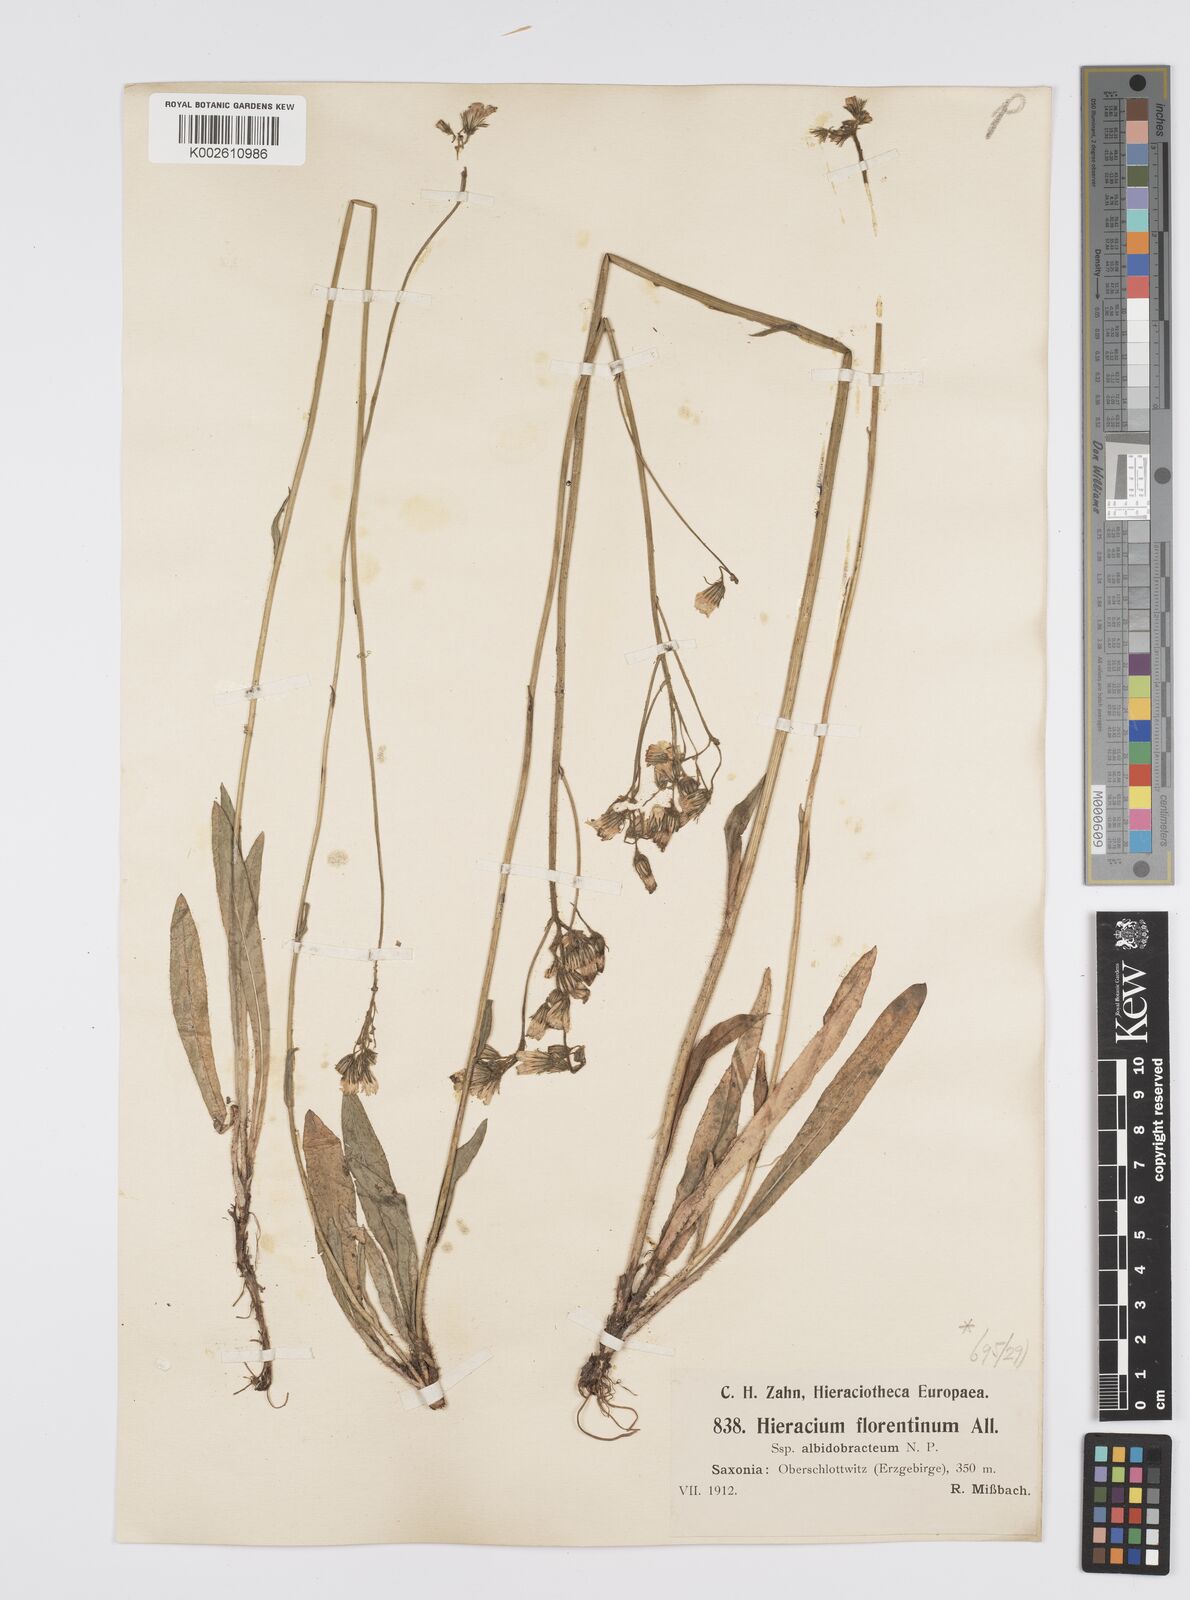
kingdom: Plantae
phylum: Tracheophyta
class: Magnoliopsida
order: Asterales
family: Asteraceae
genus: Pilosella
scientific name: Pilosella piloselloides
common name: Glaucous king-devil
